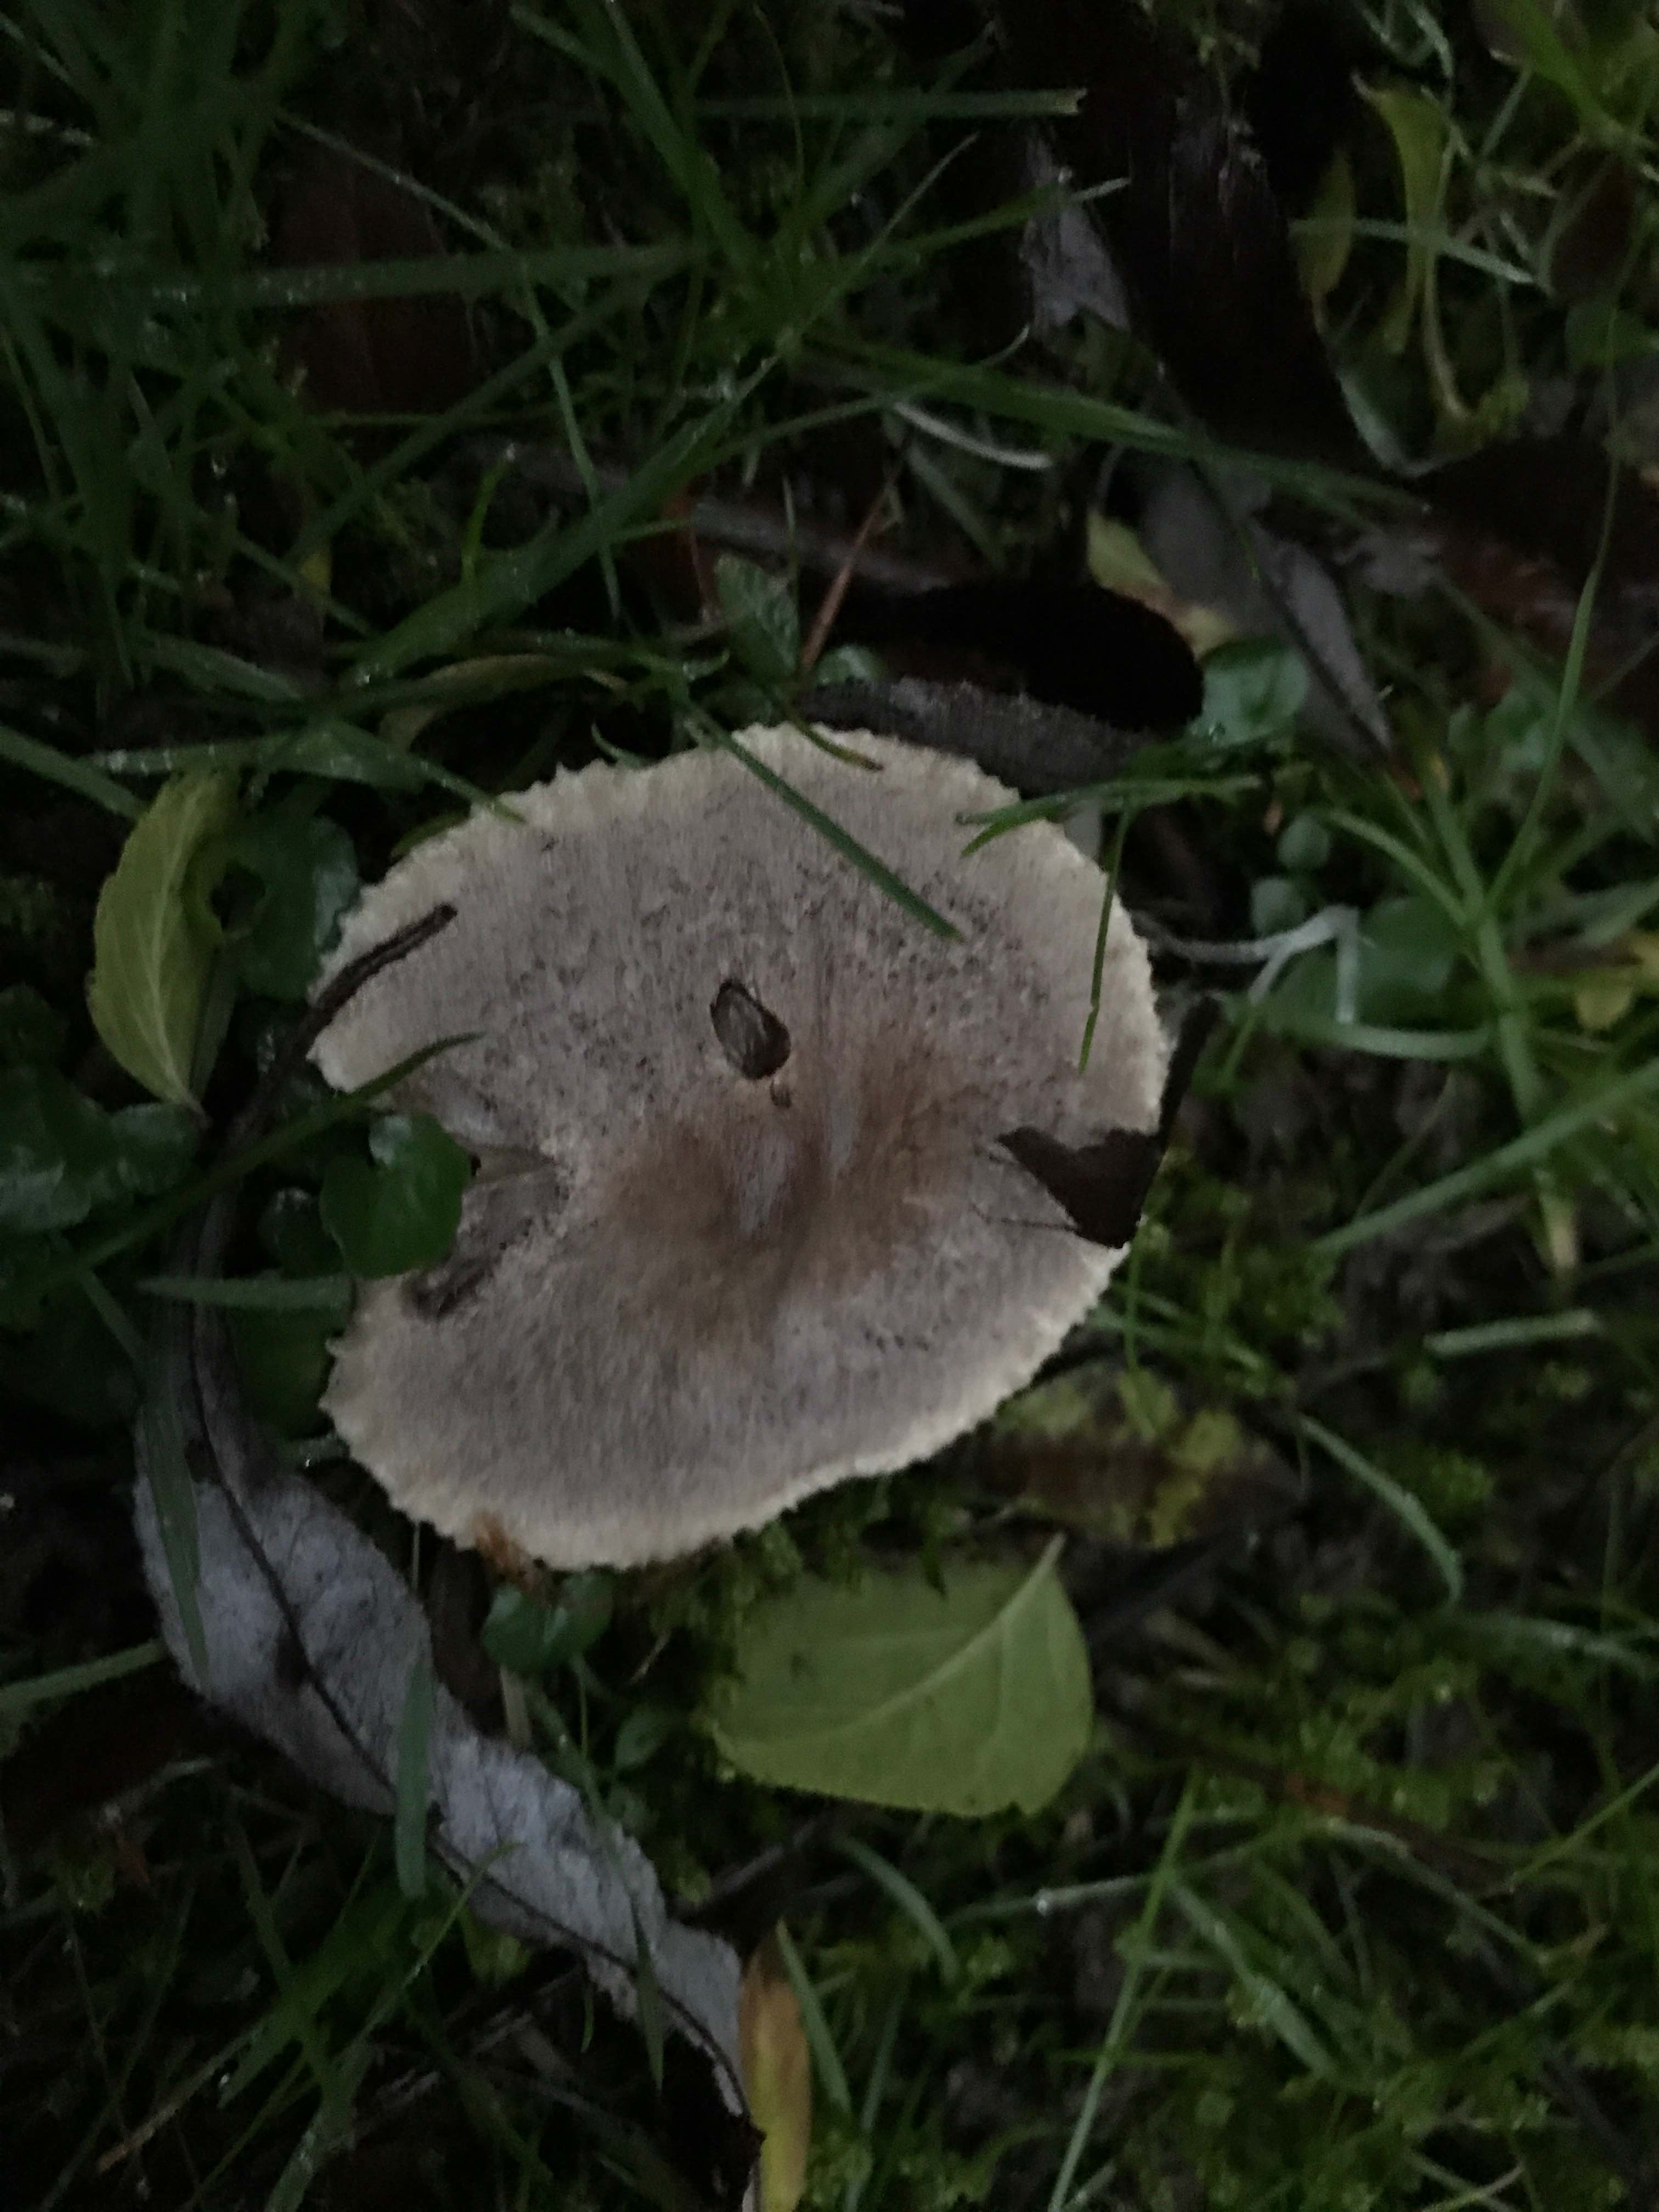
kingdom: Fungi
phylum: Basidiomycota
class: Agaricomycetes
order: Agaricales
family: Tricholomataceae
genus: Tricholoma
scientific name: Tricholoma terreum
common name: jordfarvet ridderhat
